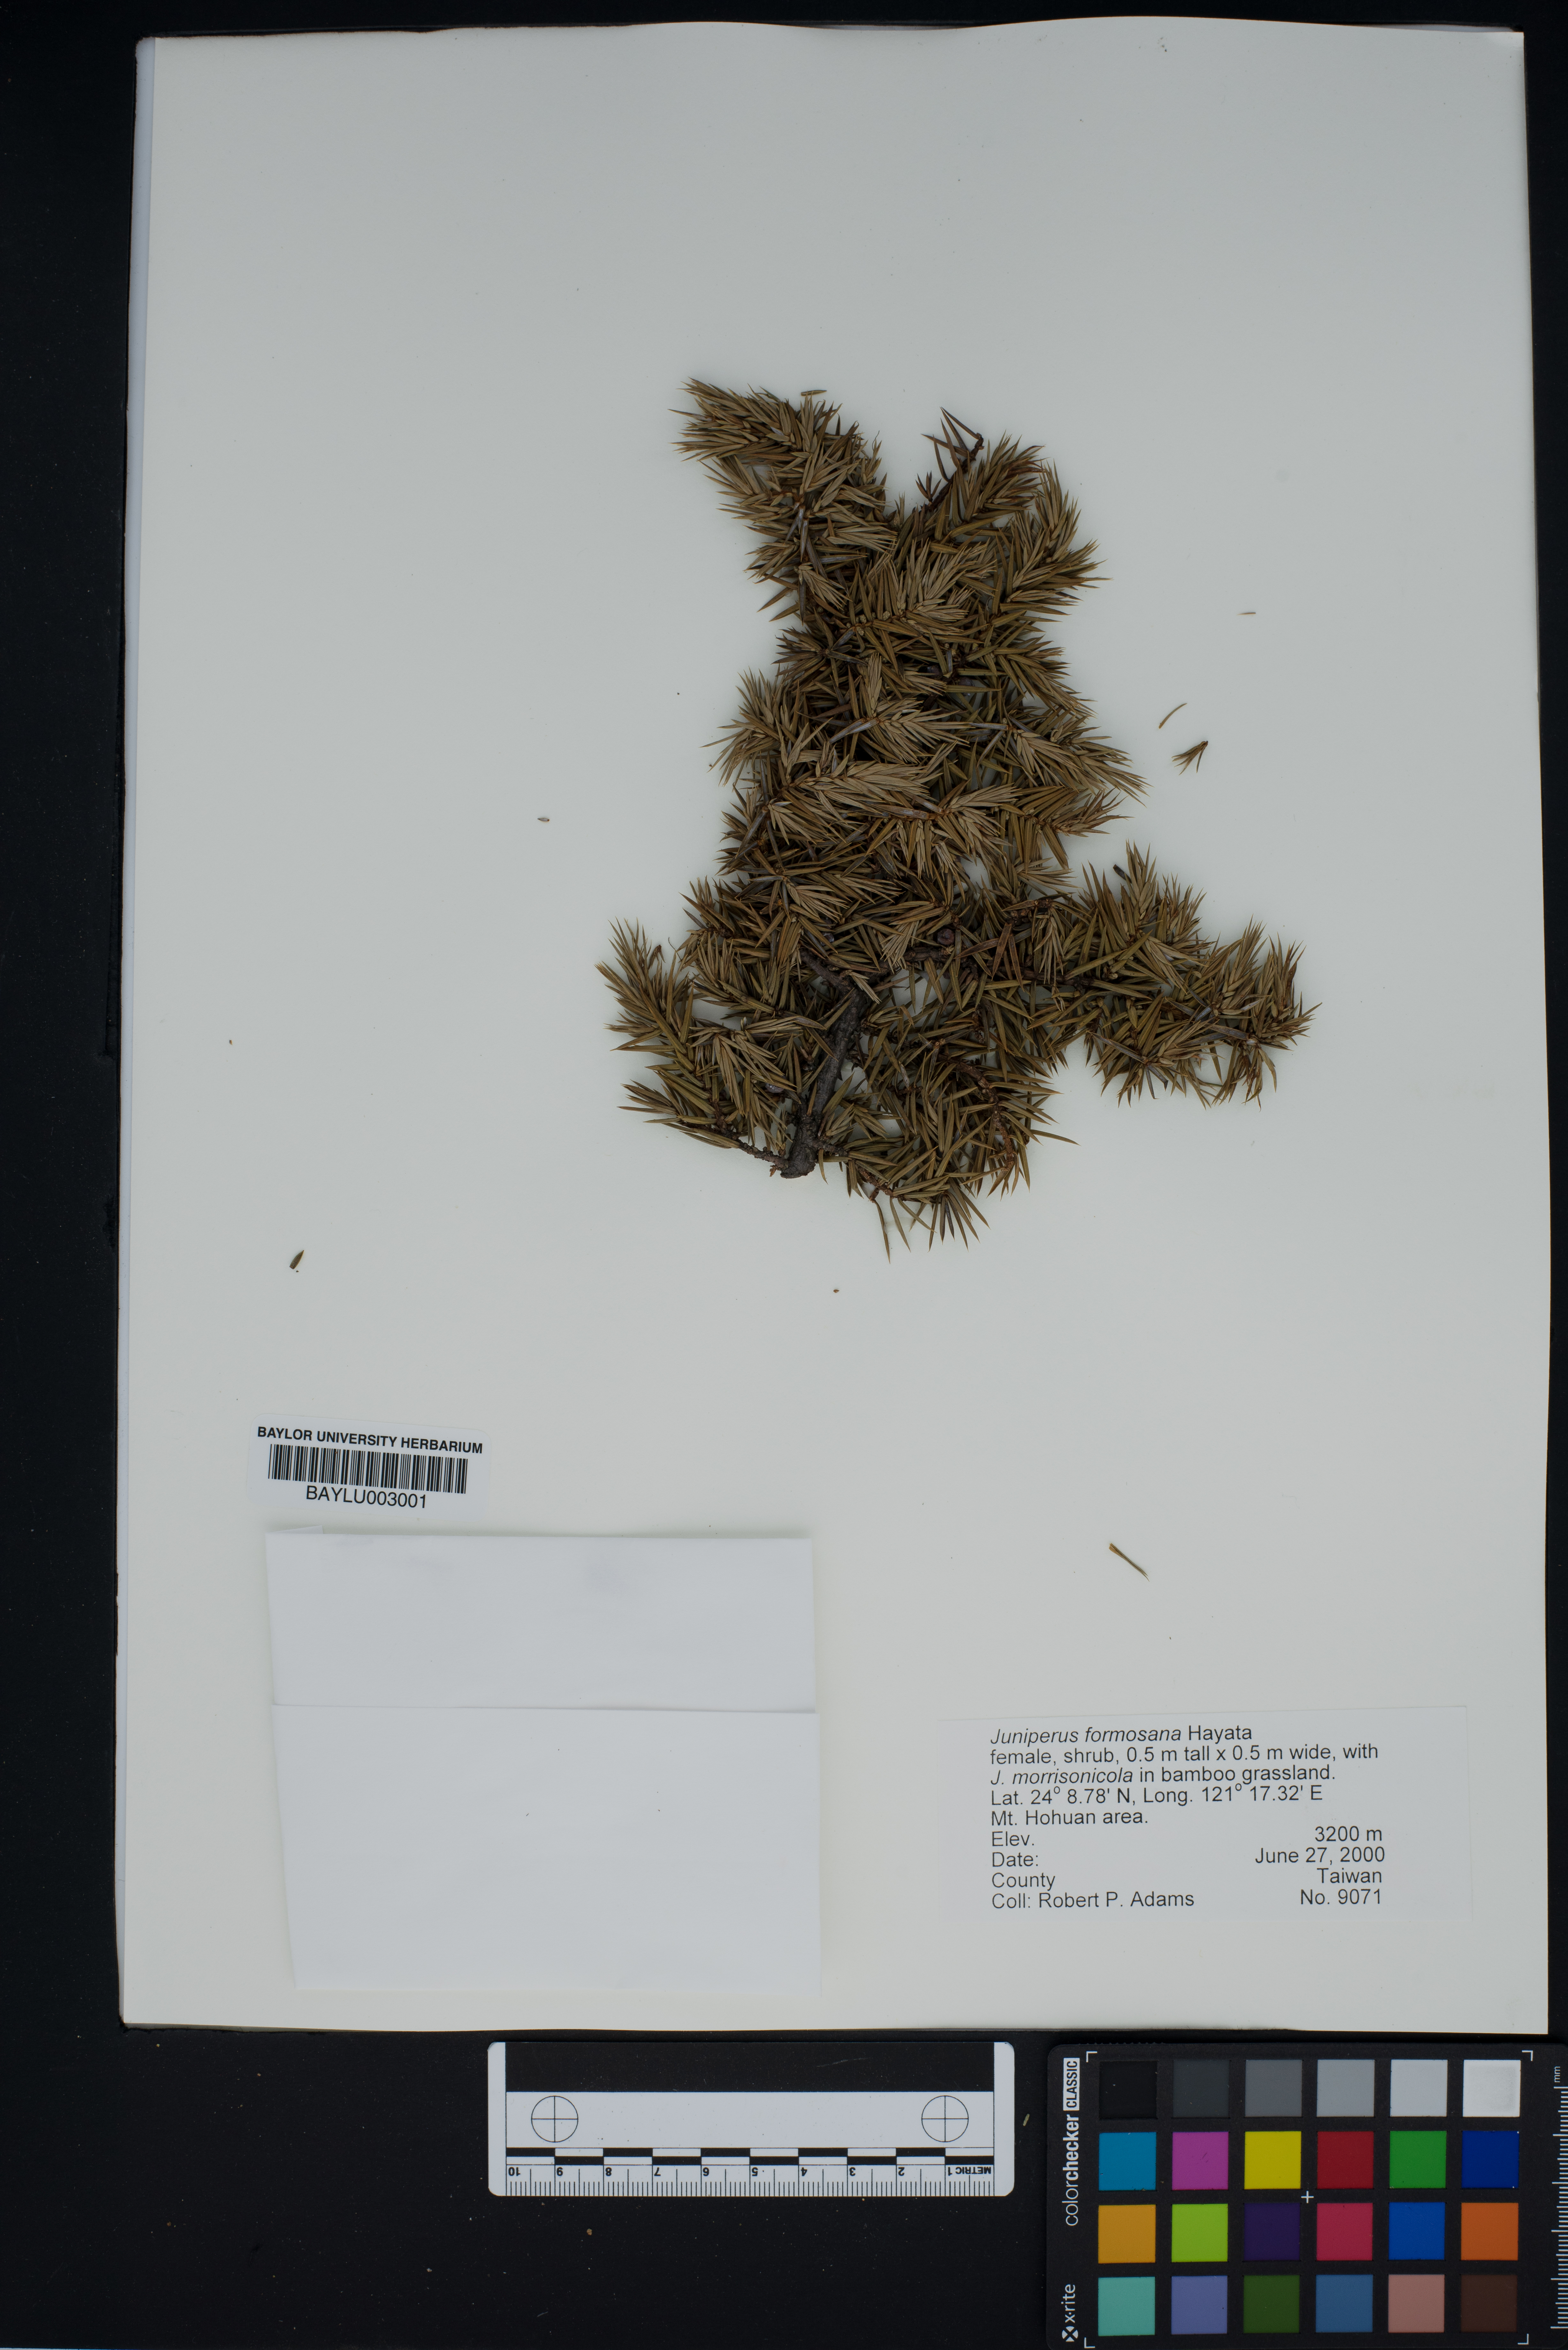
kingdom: Plantae
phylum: Tracheophyta
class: Pinopsida
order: Pinales
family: Cupressaceae
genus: Juniperus
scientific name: Juniperus formosana
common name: Formosan juniper
